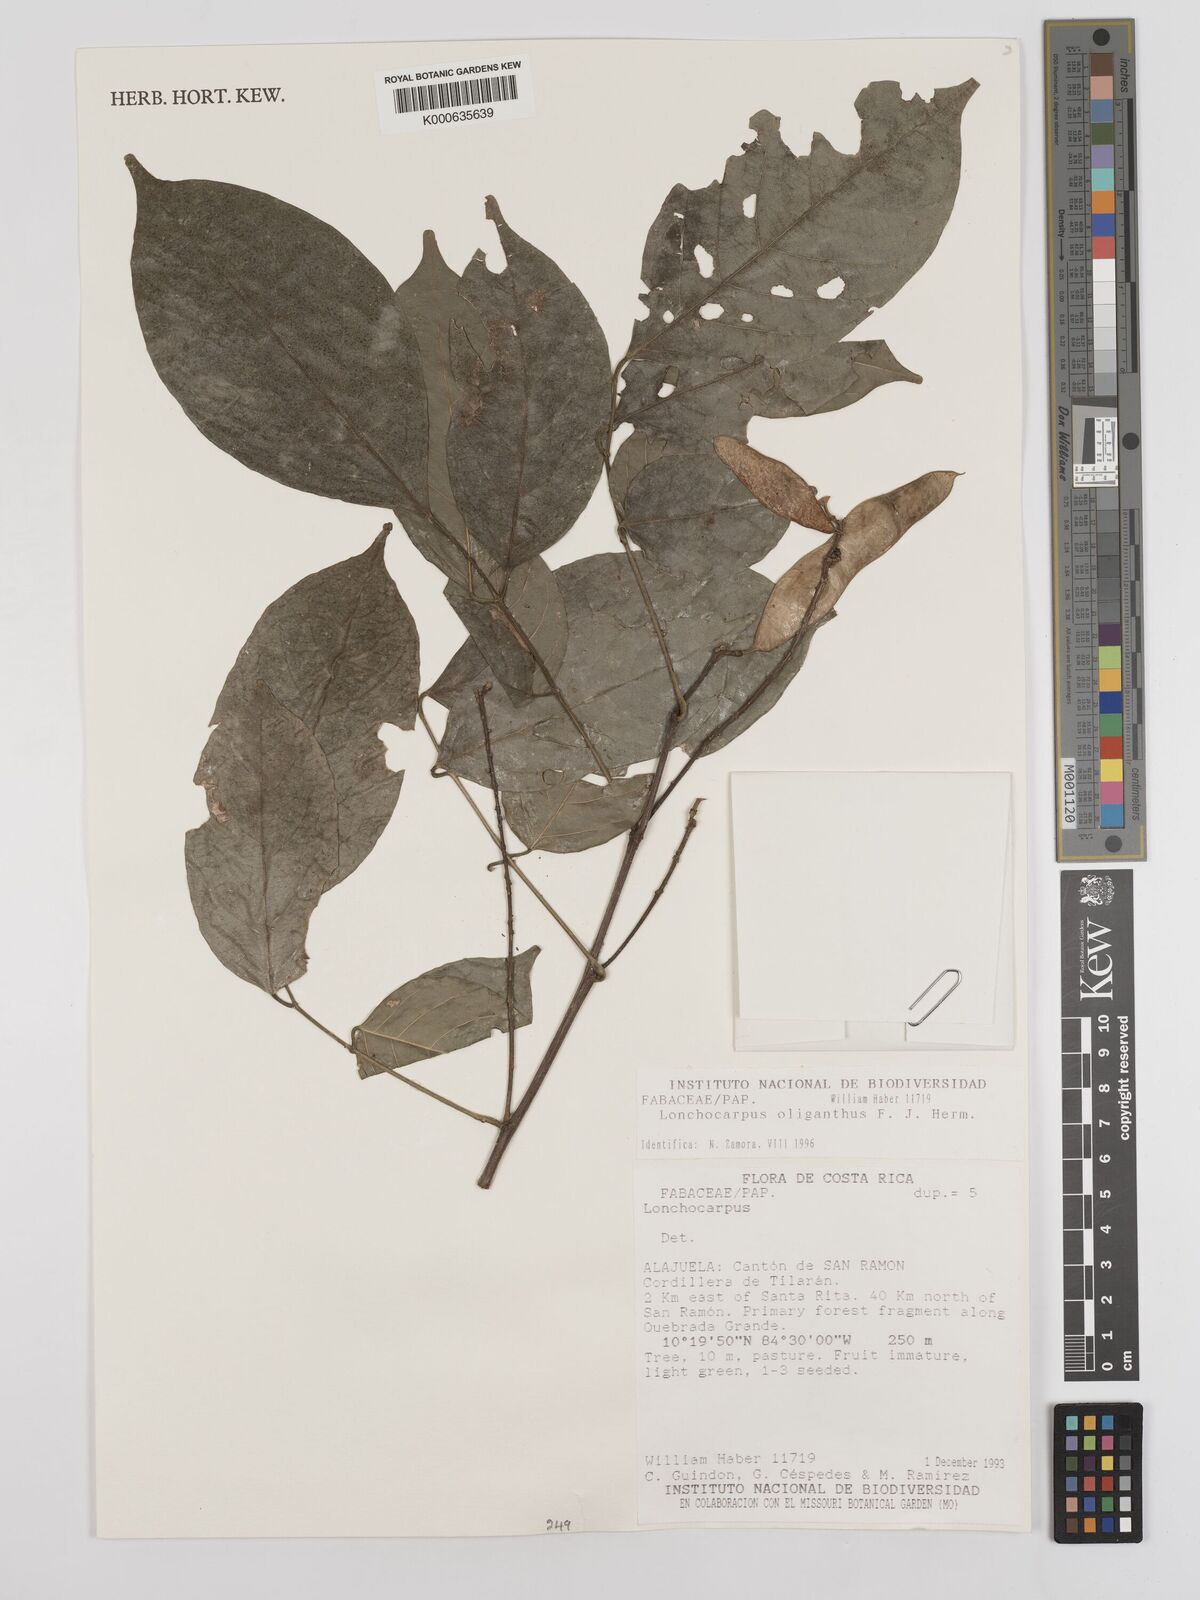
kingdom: Plantae
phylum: Tracheophyta
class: Magnoliopsida
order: Fabales
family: Fabaceae
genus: Lonchocarpus
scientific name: Lonchocarpus oliganthus
